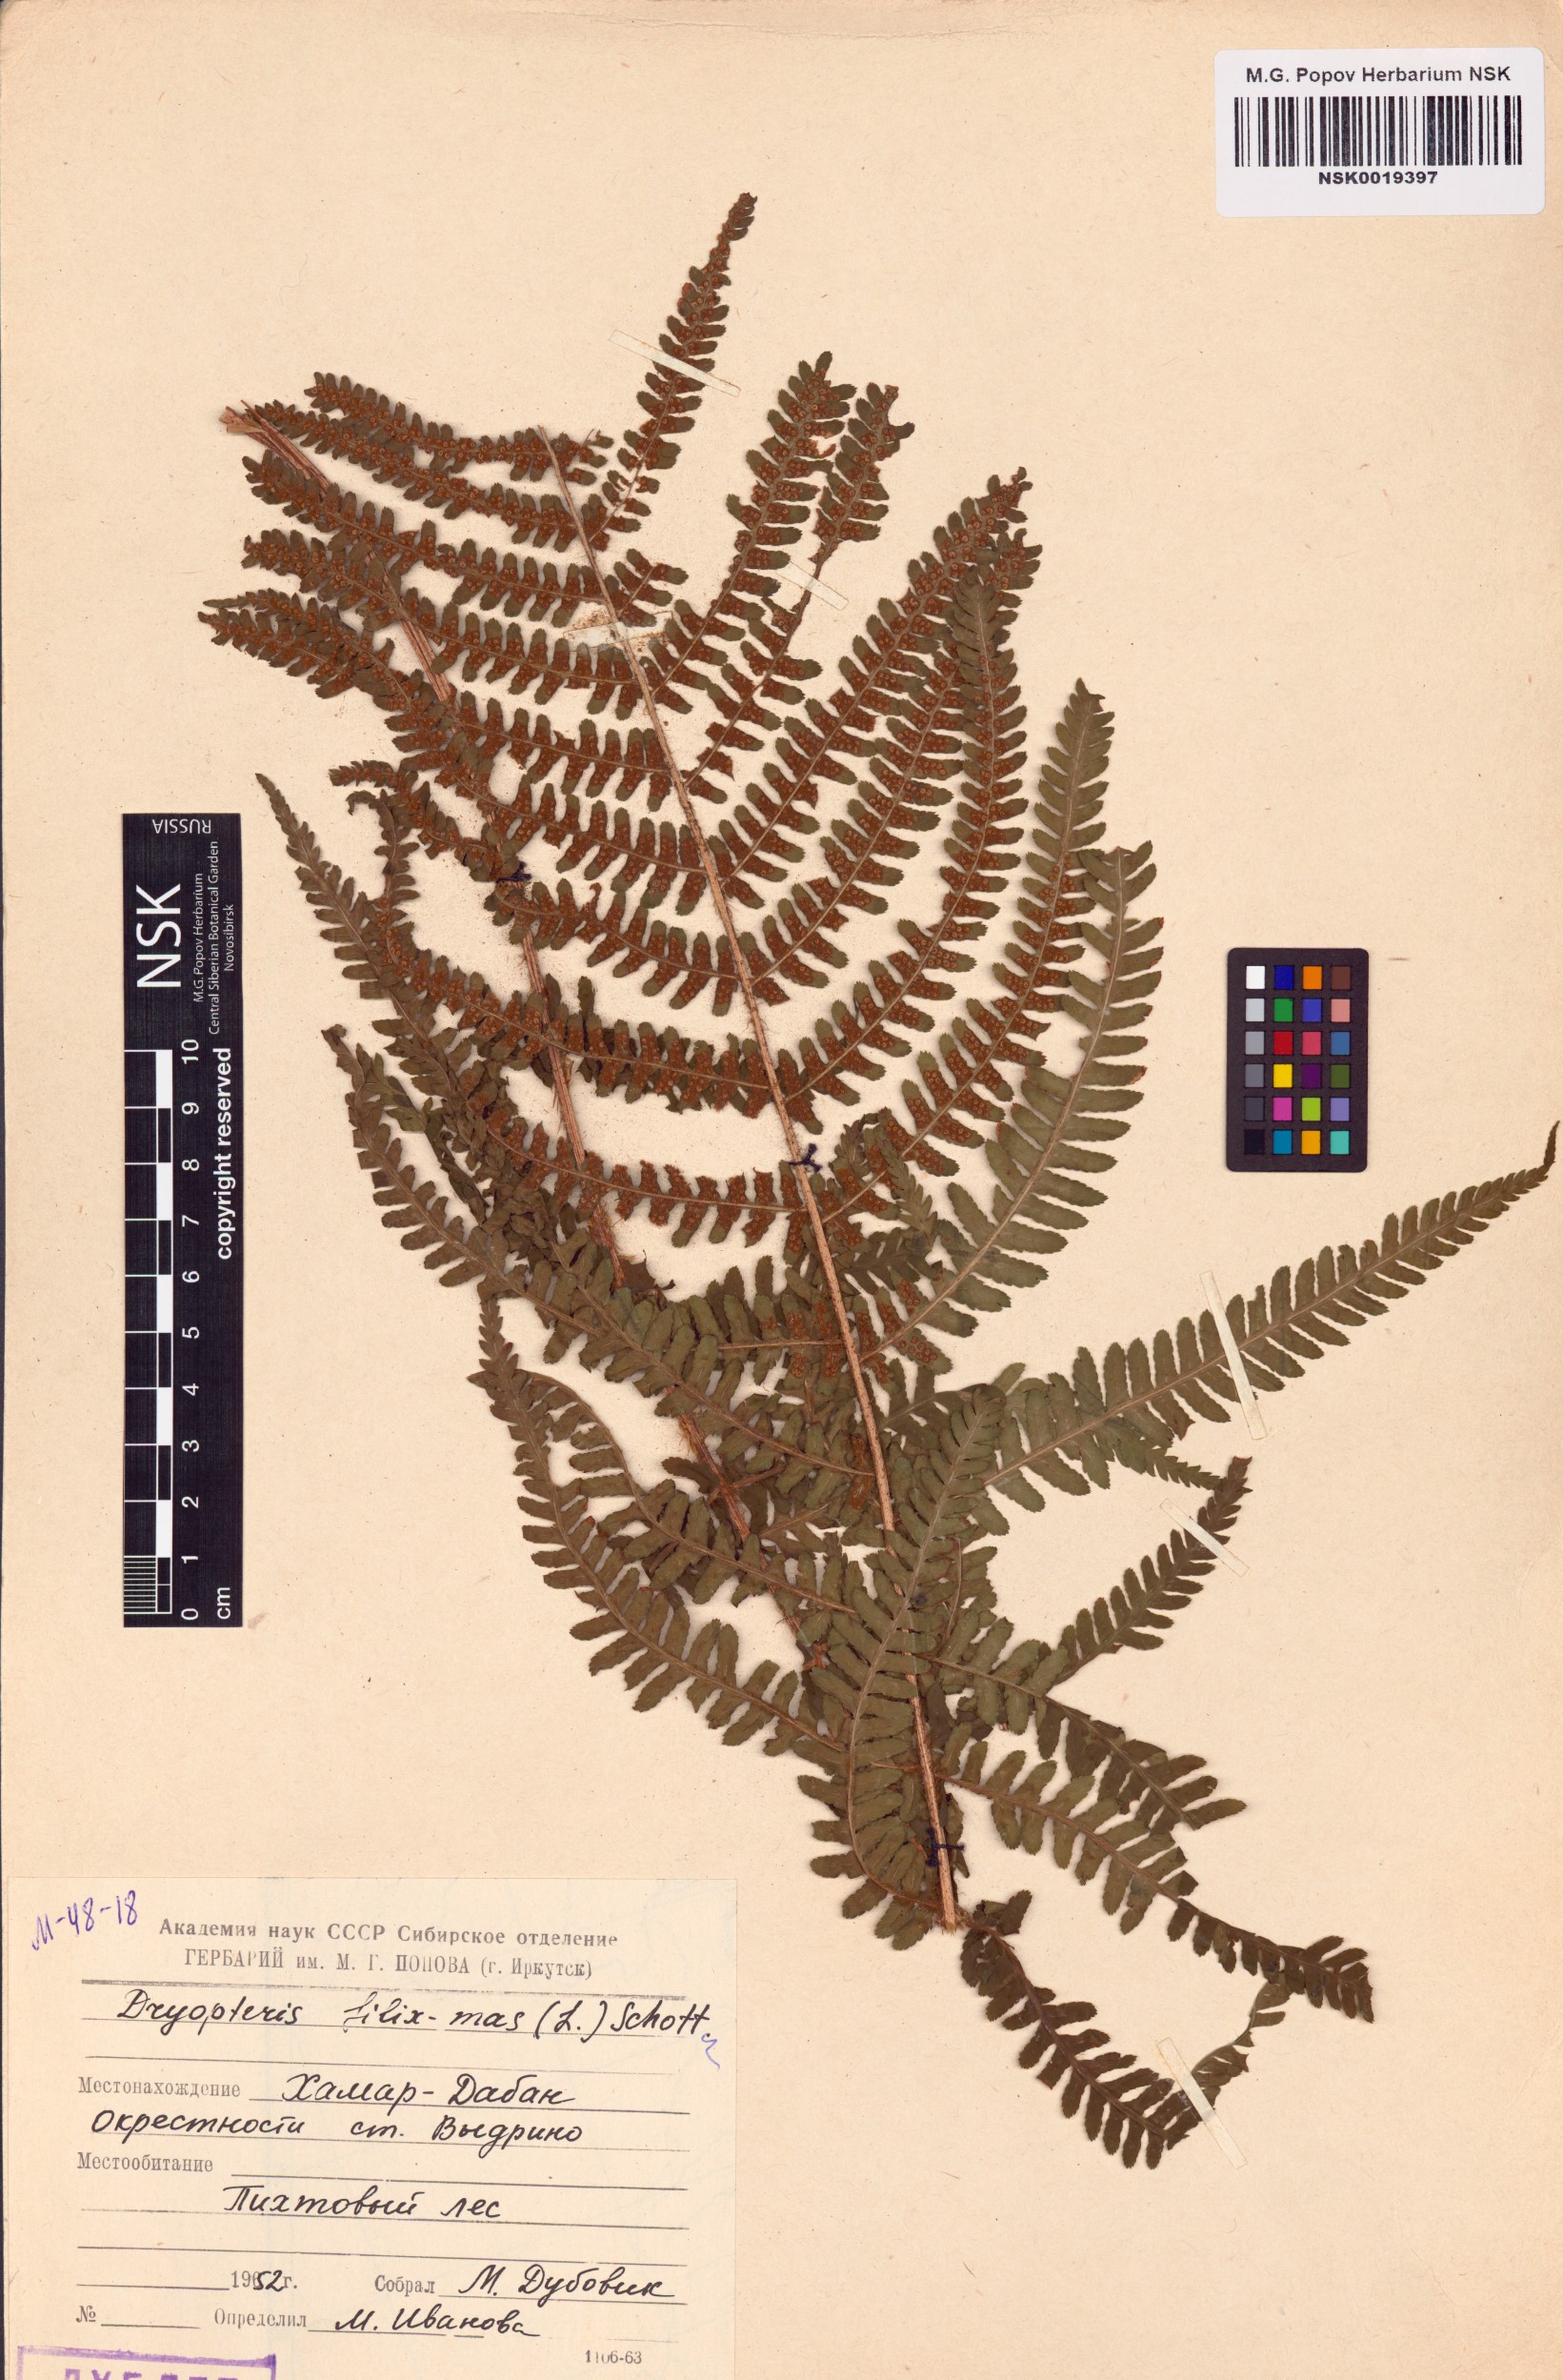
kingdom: Plantae
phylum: Tracheophyta
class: Polypodiopsida
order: Polypodiales
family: Dryopteridaceae
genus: Dryopteris
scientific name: Dryopteris filix-mas
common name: Male fern
